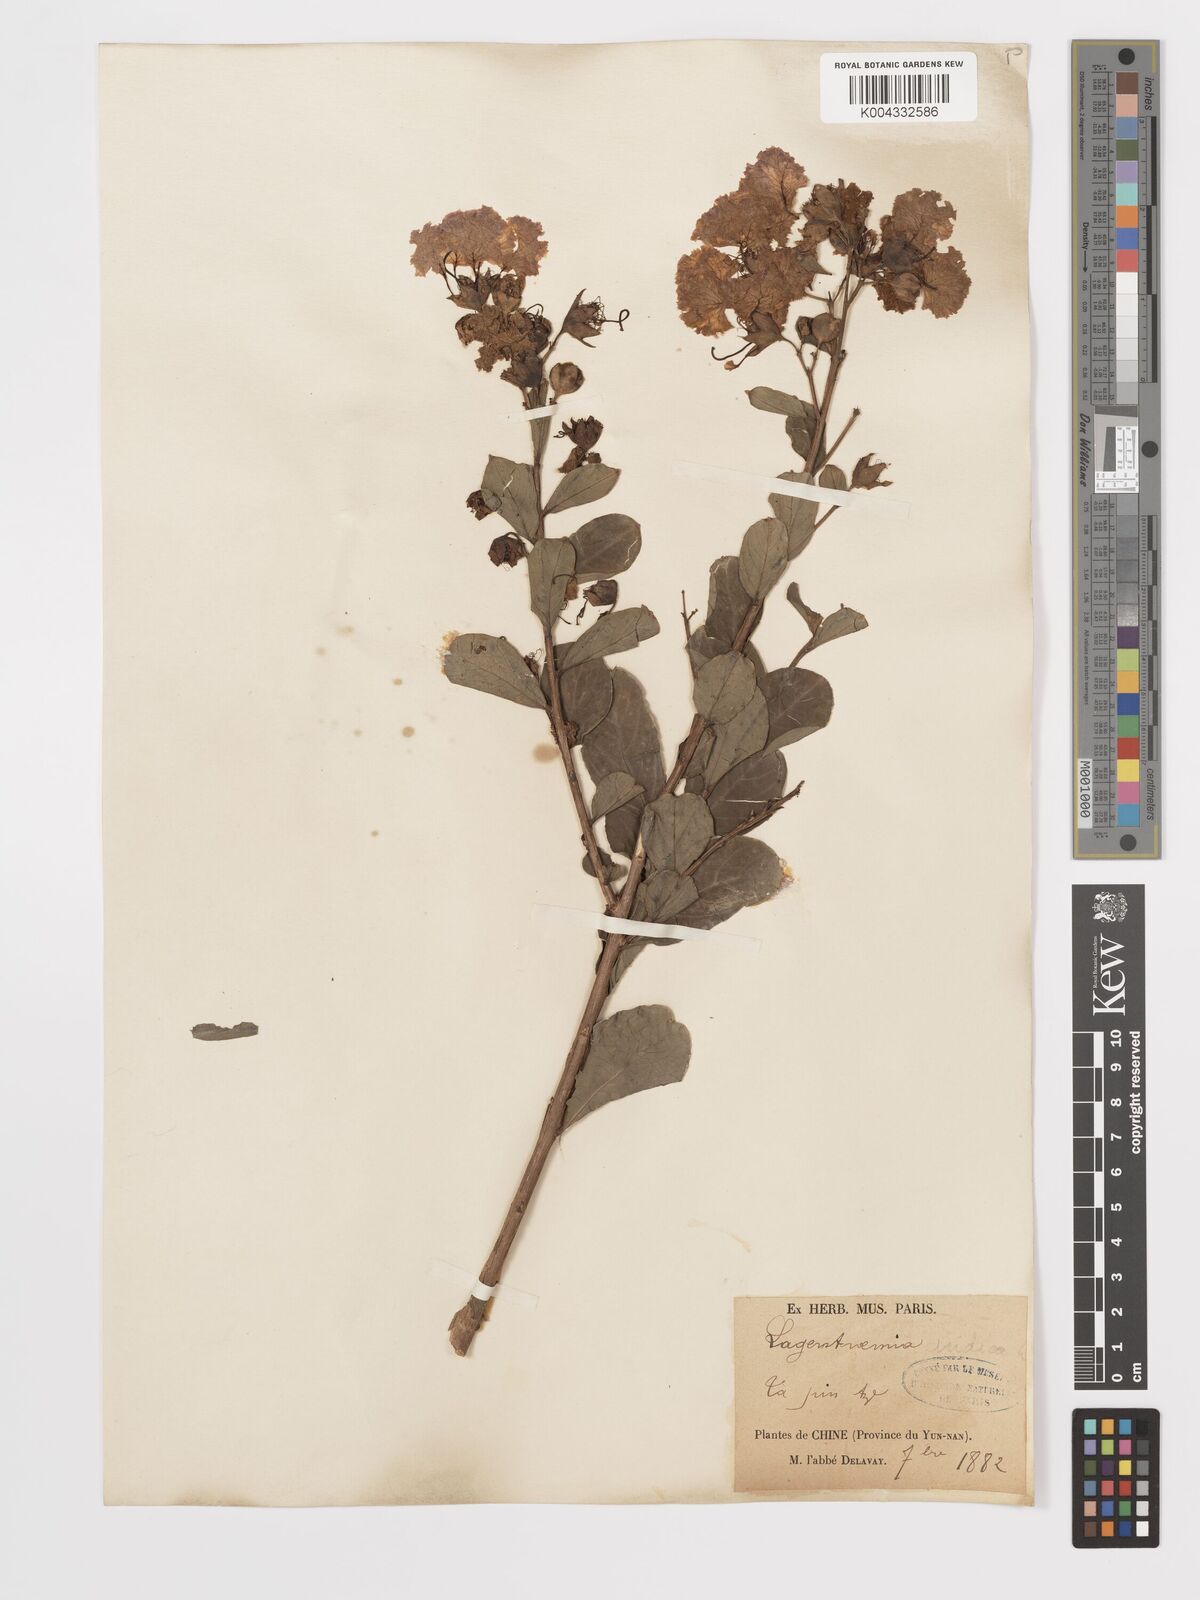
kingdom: Plantae
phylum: Tracheophyta
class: Magnoliopsida
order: Myrtales
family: Lythraceae
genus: Lagerstroemia
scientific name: Lagerstroemia indica
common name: Crape-myrtle
